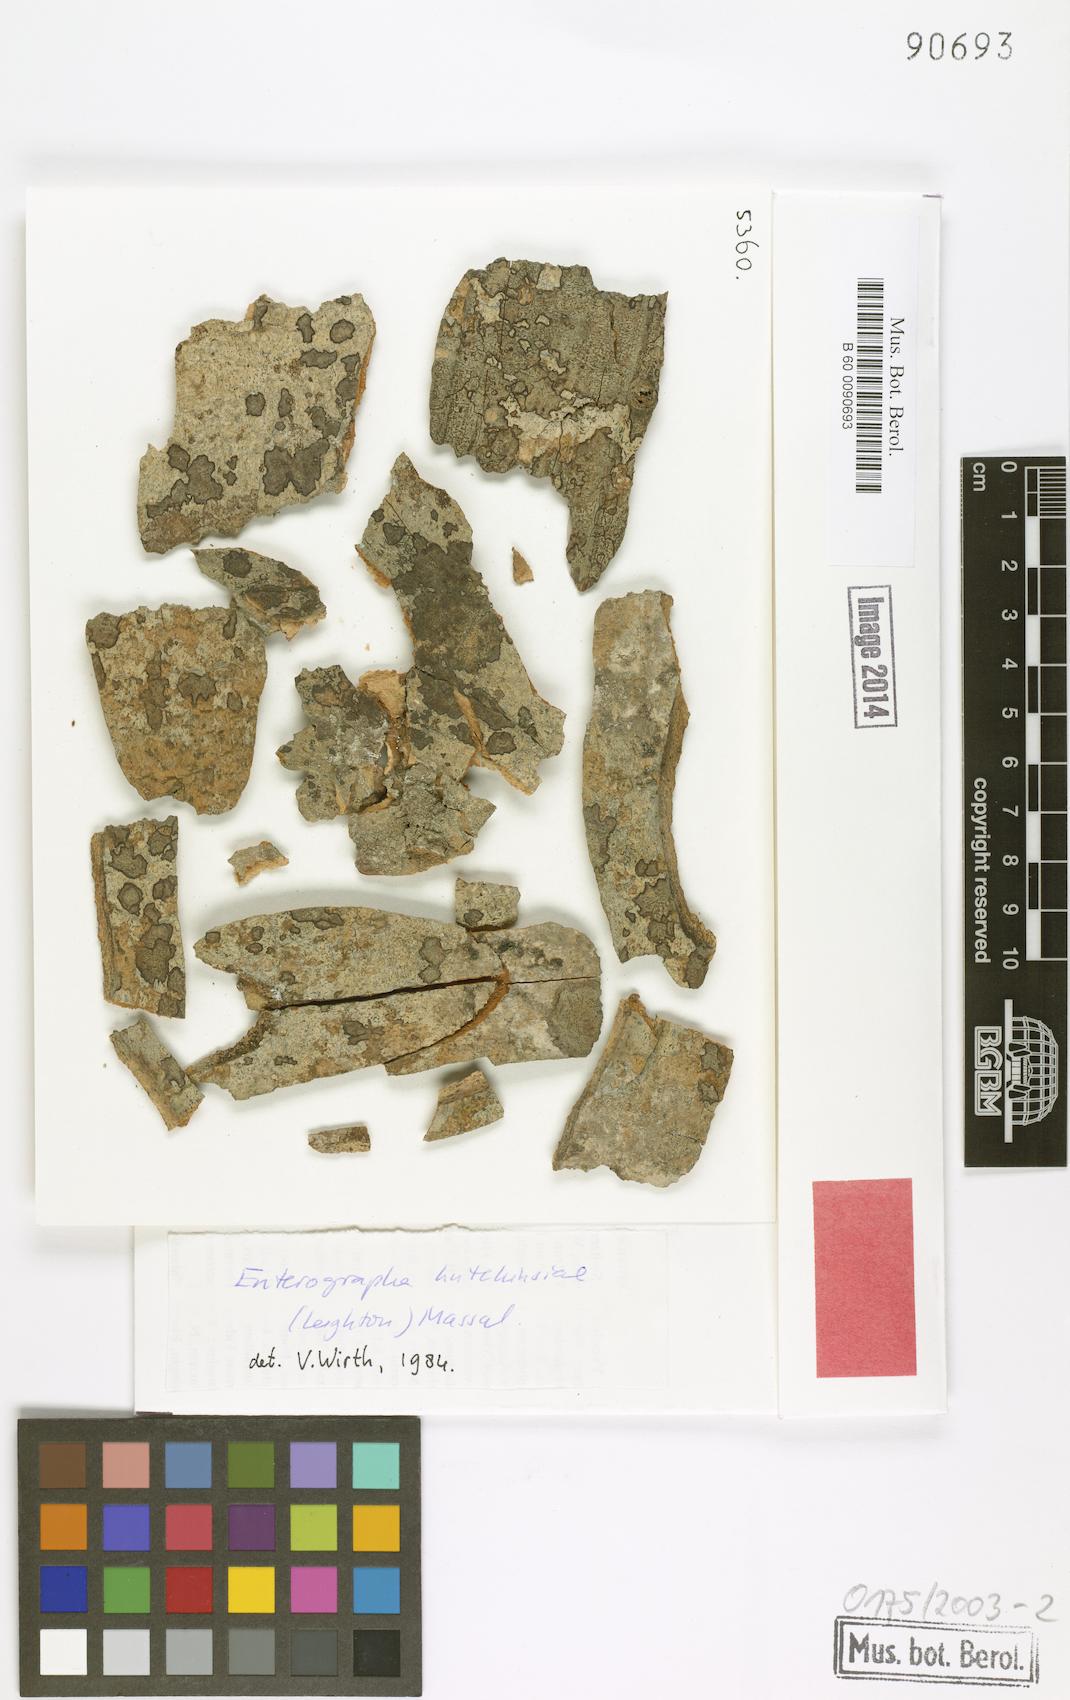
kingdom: Fungi
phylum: Ascomycota
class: Arthoniomycetes
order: Arthoniales
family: Opegraphaceae
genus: Opegrapha
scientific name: Opegrapha
